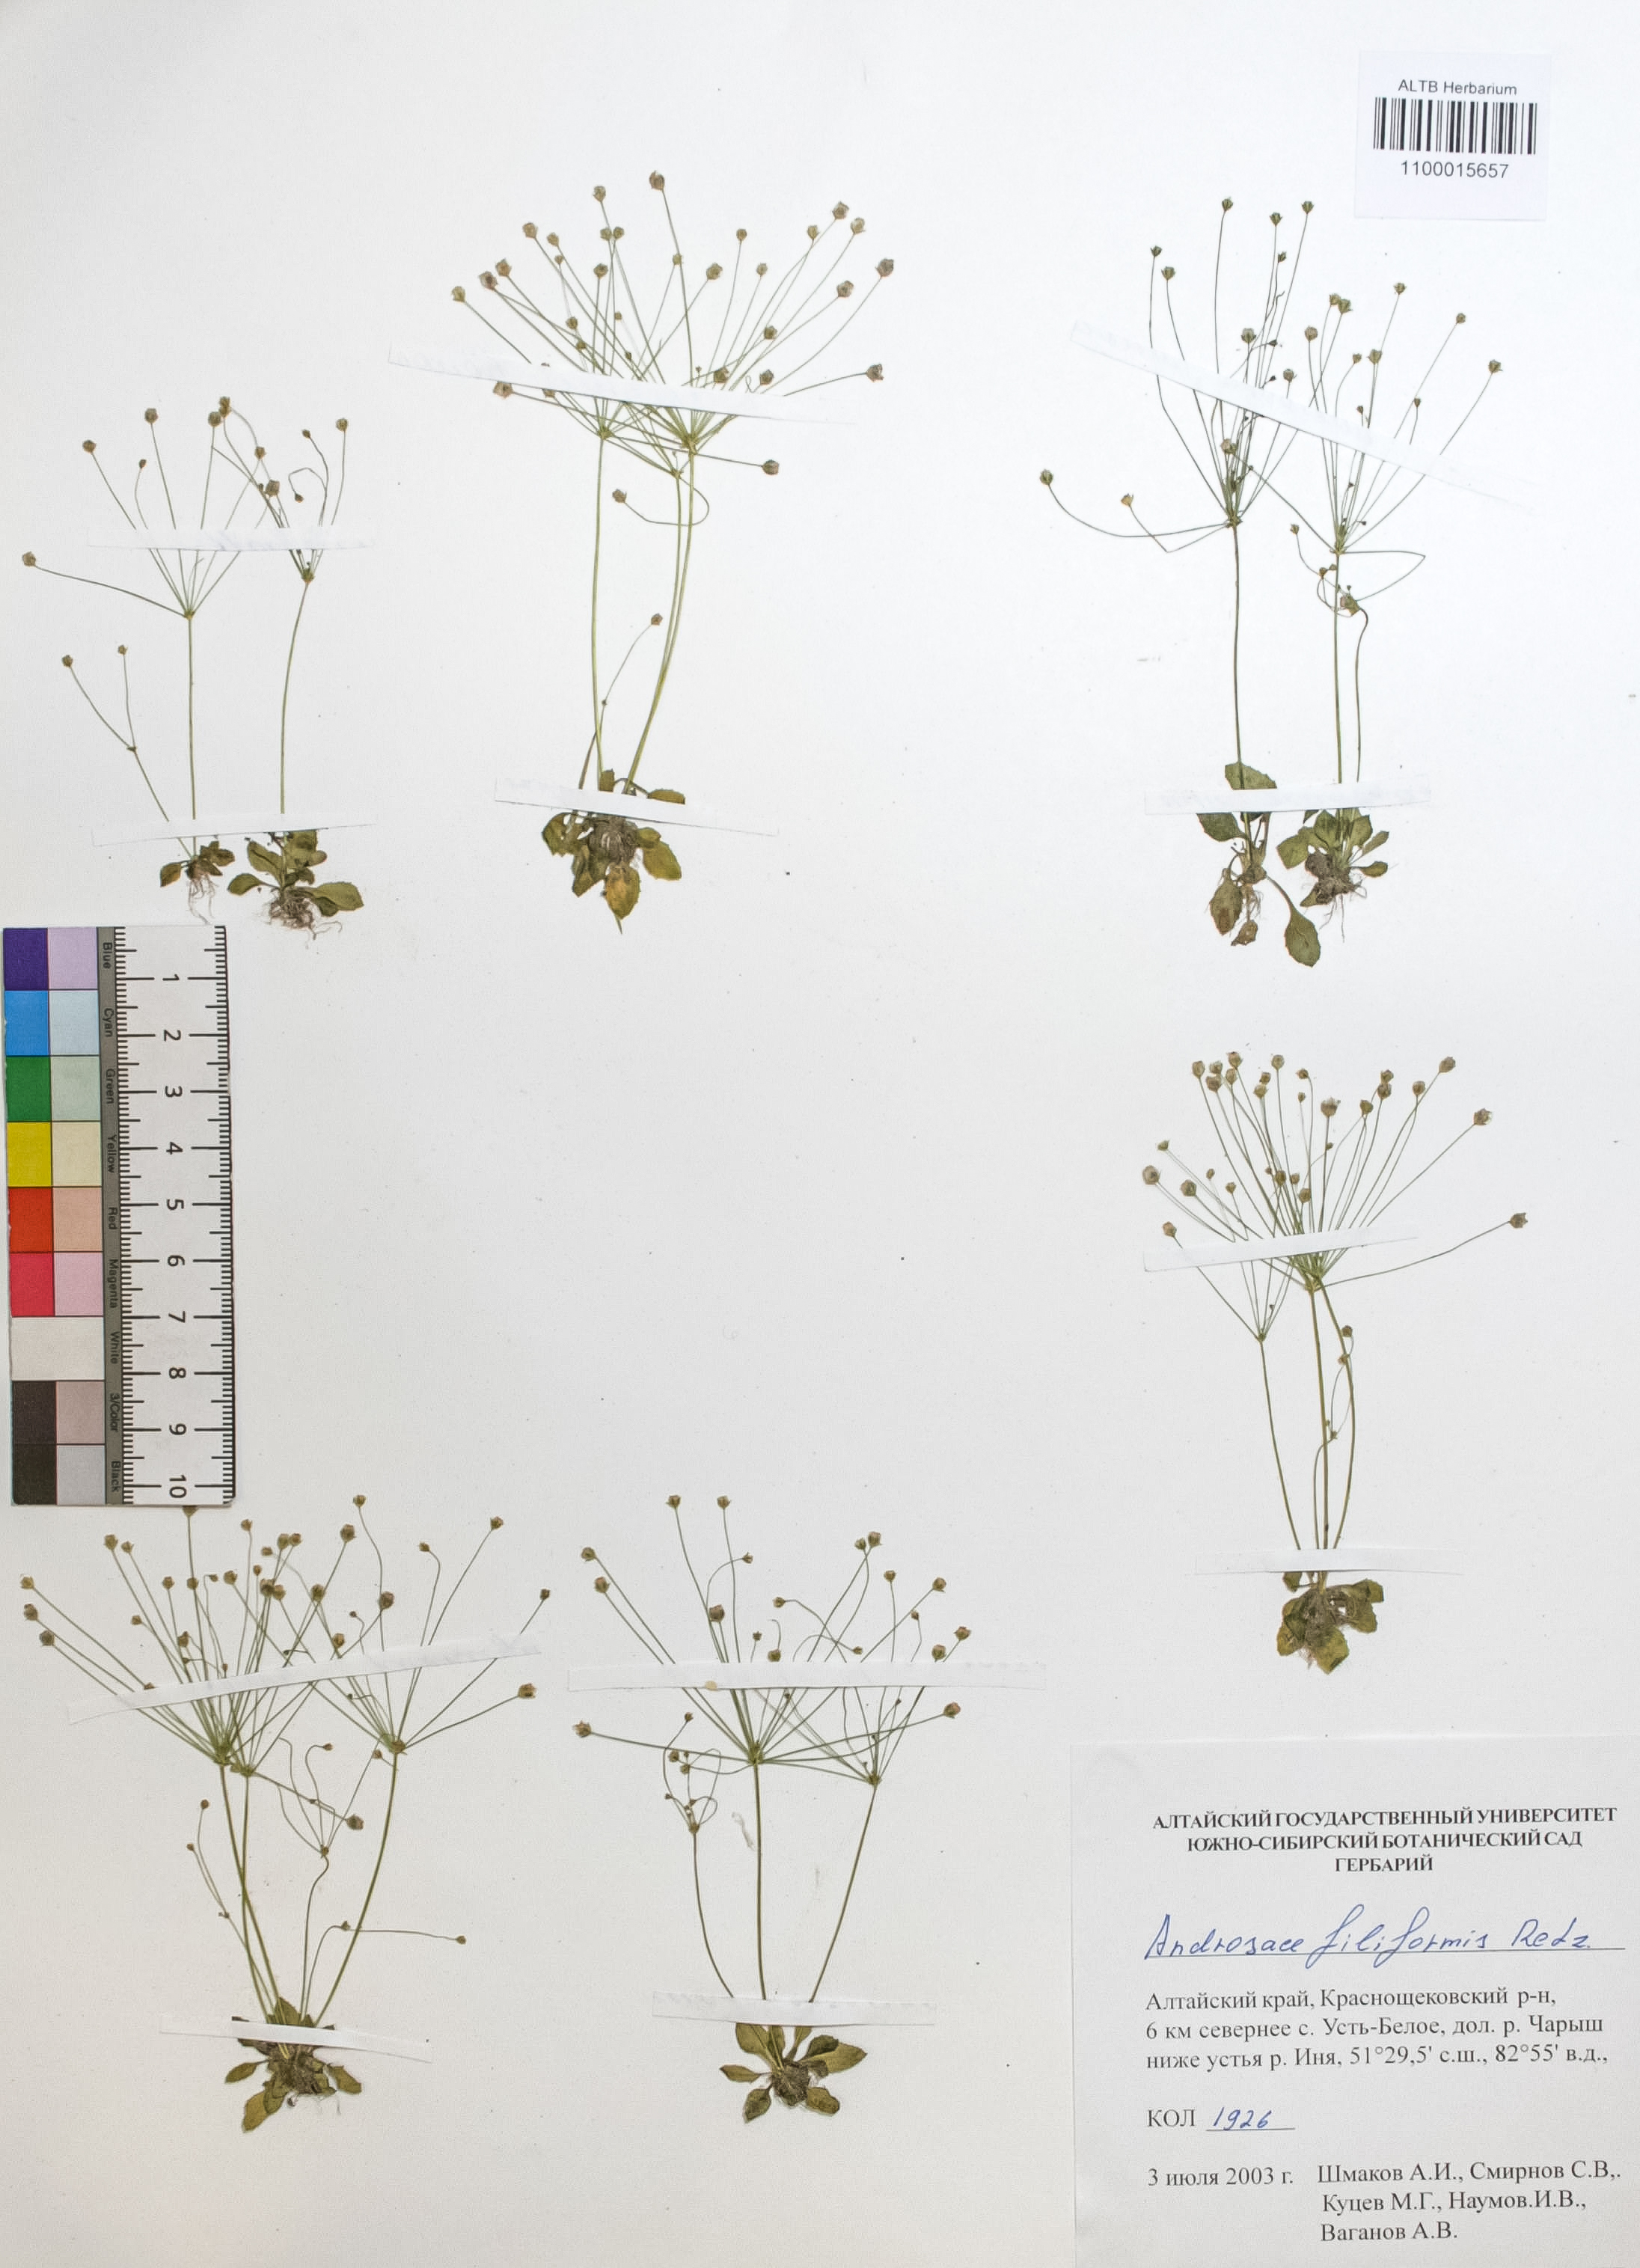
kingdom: Plantae
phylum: Tracheophyta
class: Magnoliopsida
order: Ericales
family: Primulaceae
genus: Androsace
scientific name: Androsace filiformis
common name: Filiform rock jasmine
